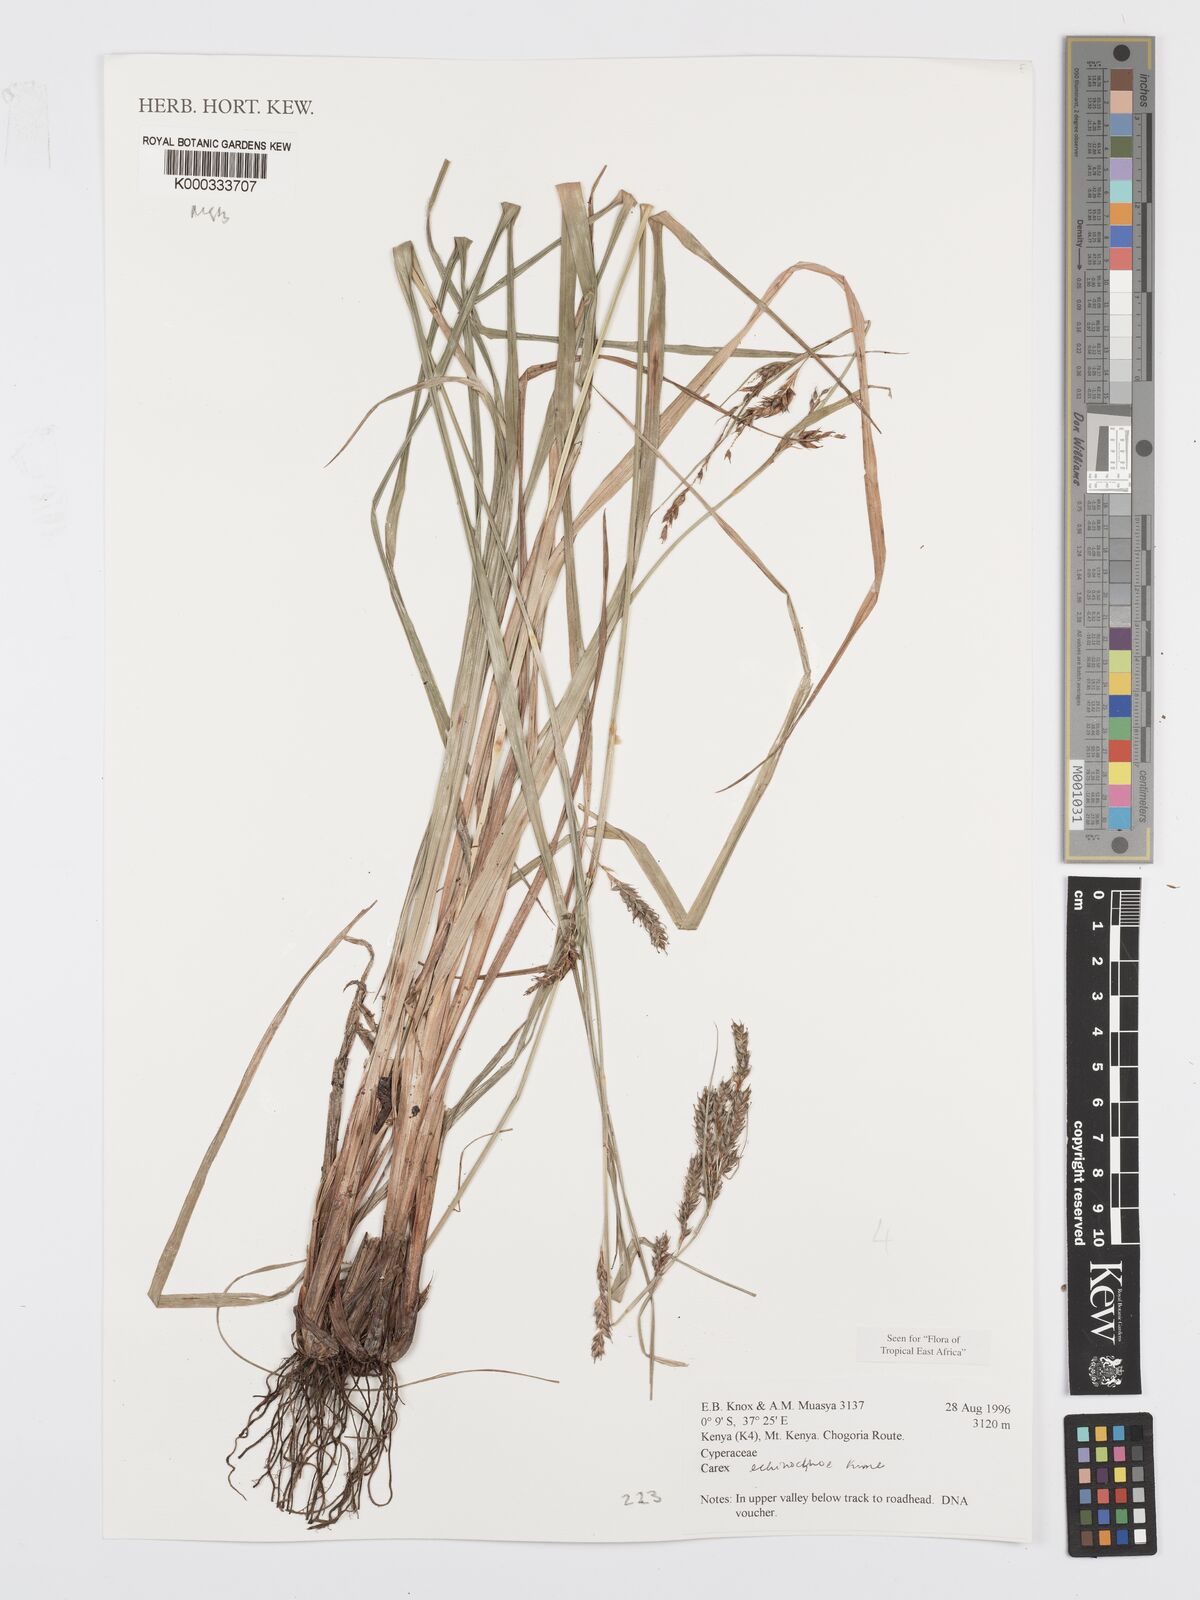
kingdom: Plantae
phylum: Tracheophyta
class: Liliopsida
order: Poales
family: Cyperaceae
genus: Carex
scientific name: Carex echinochloe
